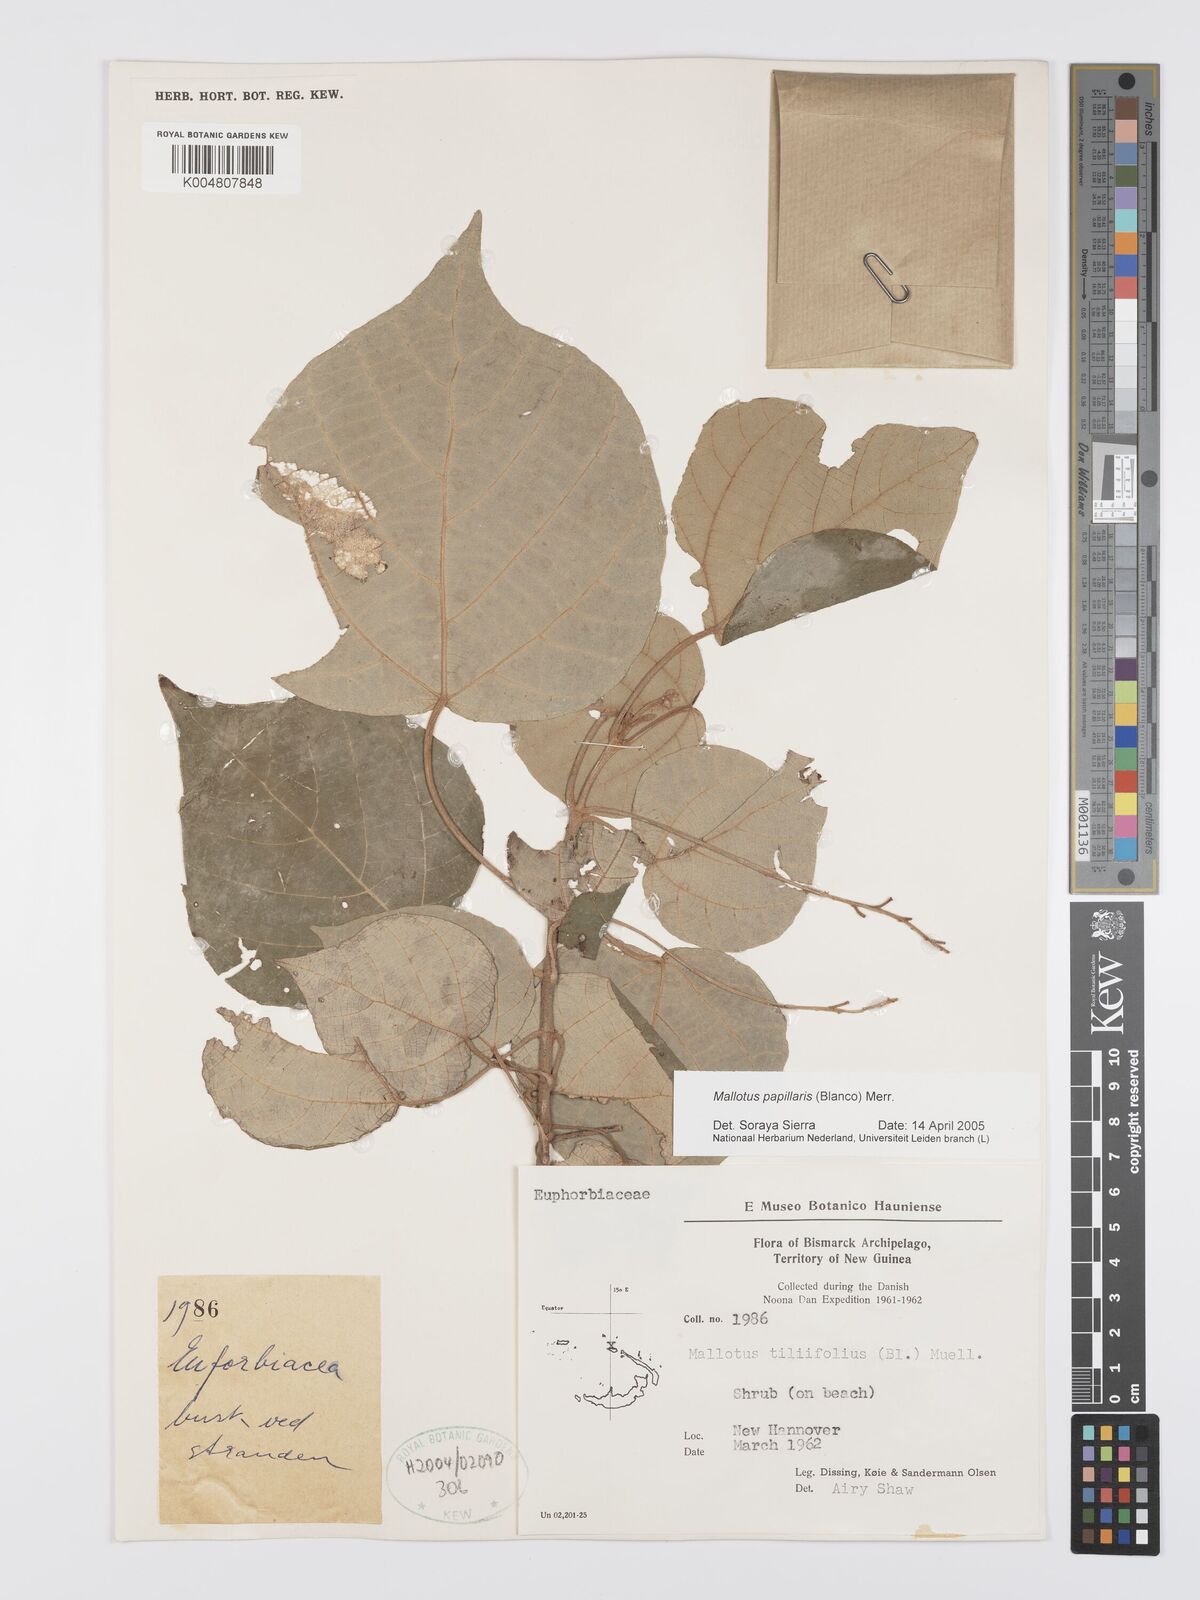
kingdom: Plantae
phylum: Tracheophyta
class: Magnoliopsida
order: Malpighiales
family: Euphorbiaceae
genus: Mallotus
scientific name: Mallotus tiliifolius
